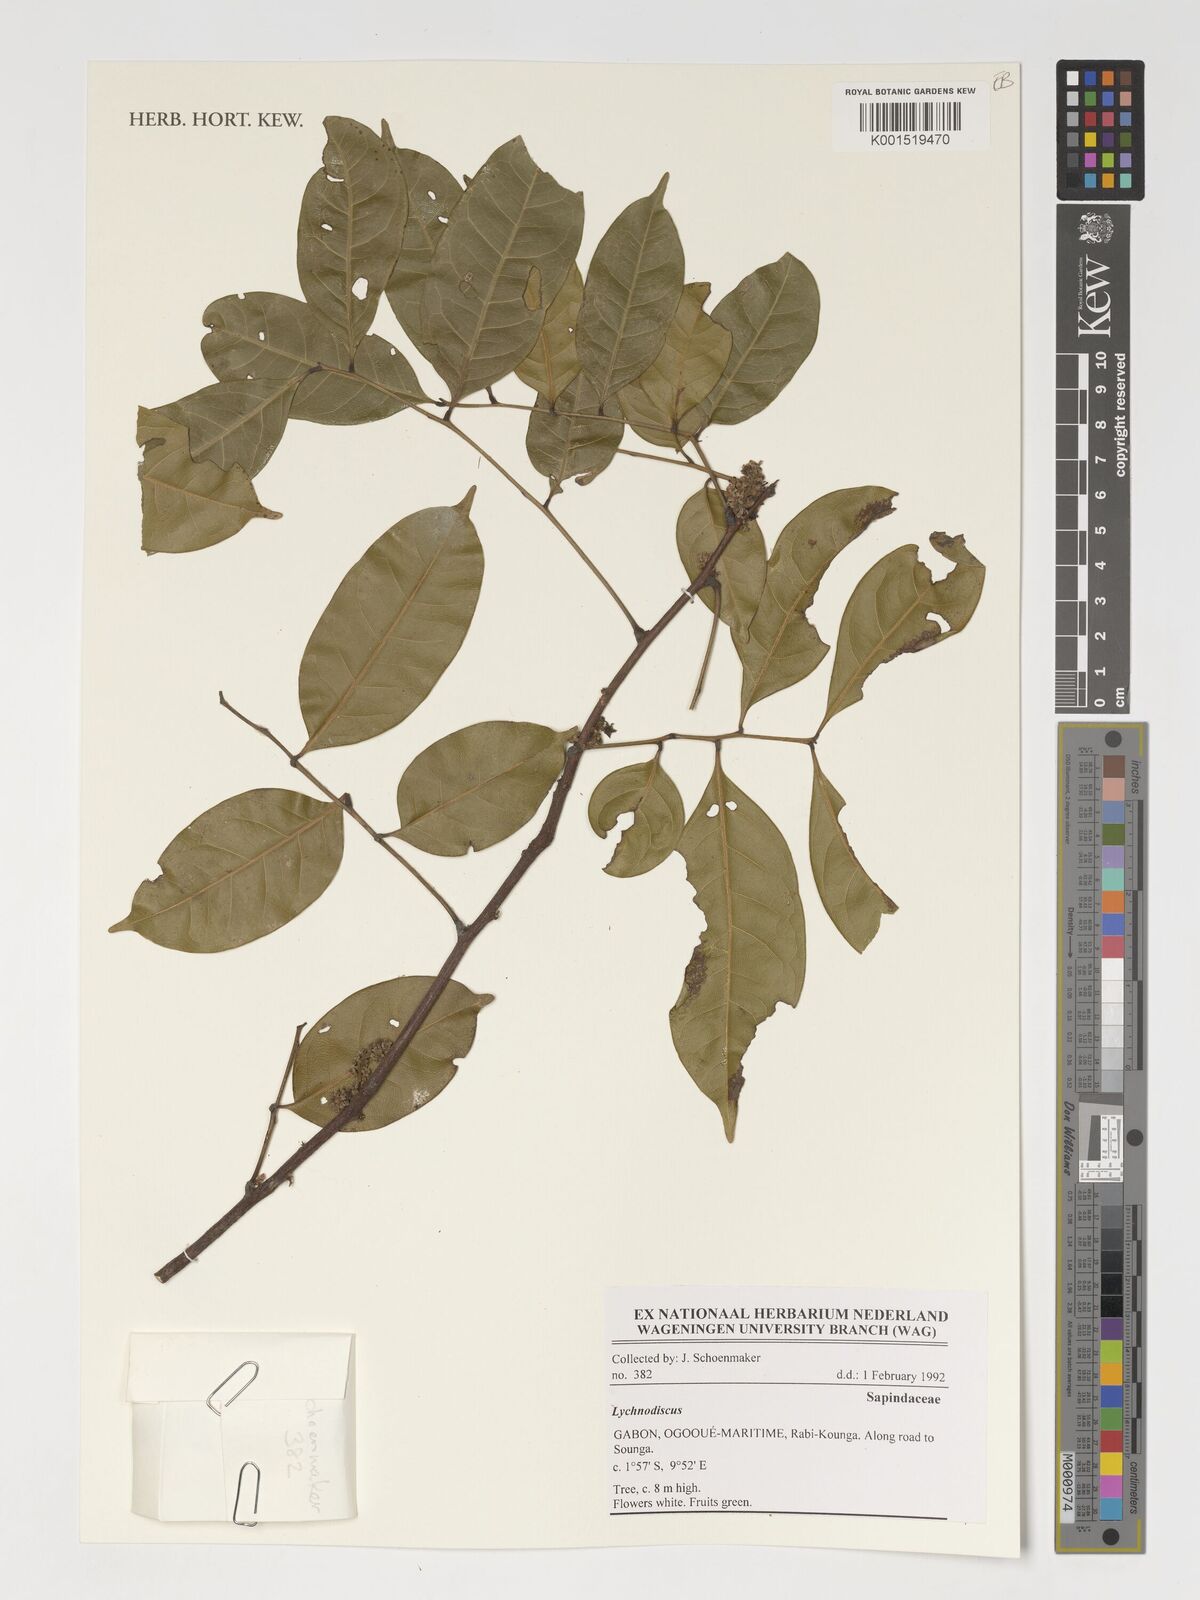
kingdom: Plantae
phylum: Tracheophyta
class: Magnoliopsida
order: Sapindales
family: Sapindaceae
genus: Lychnodiscus
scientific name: Lychnodiscus
